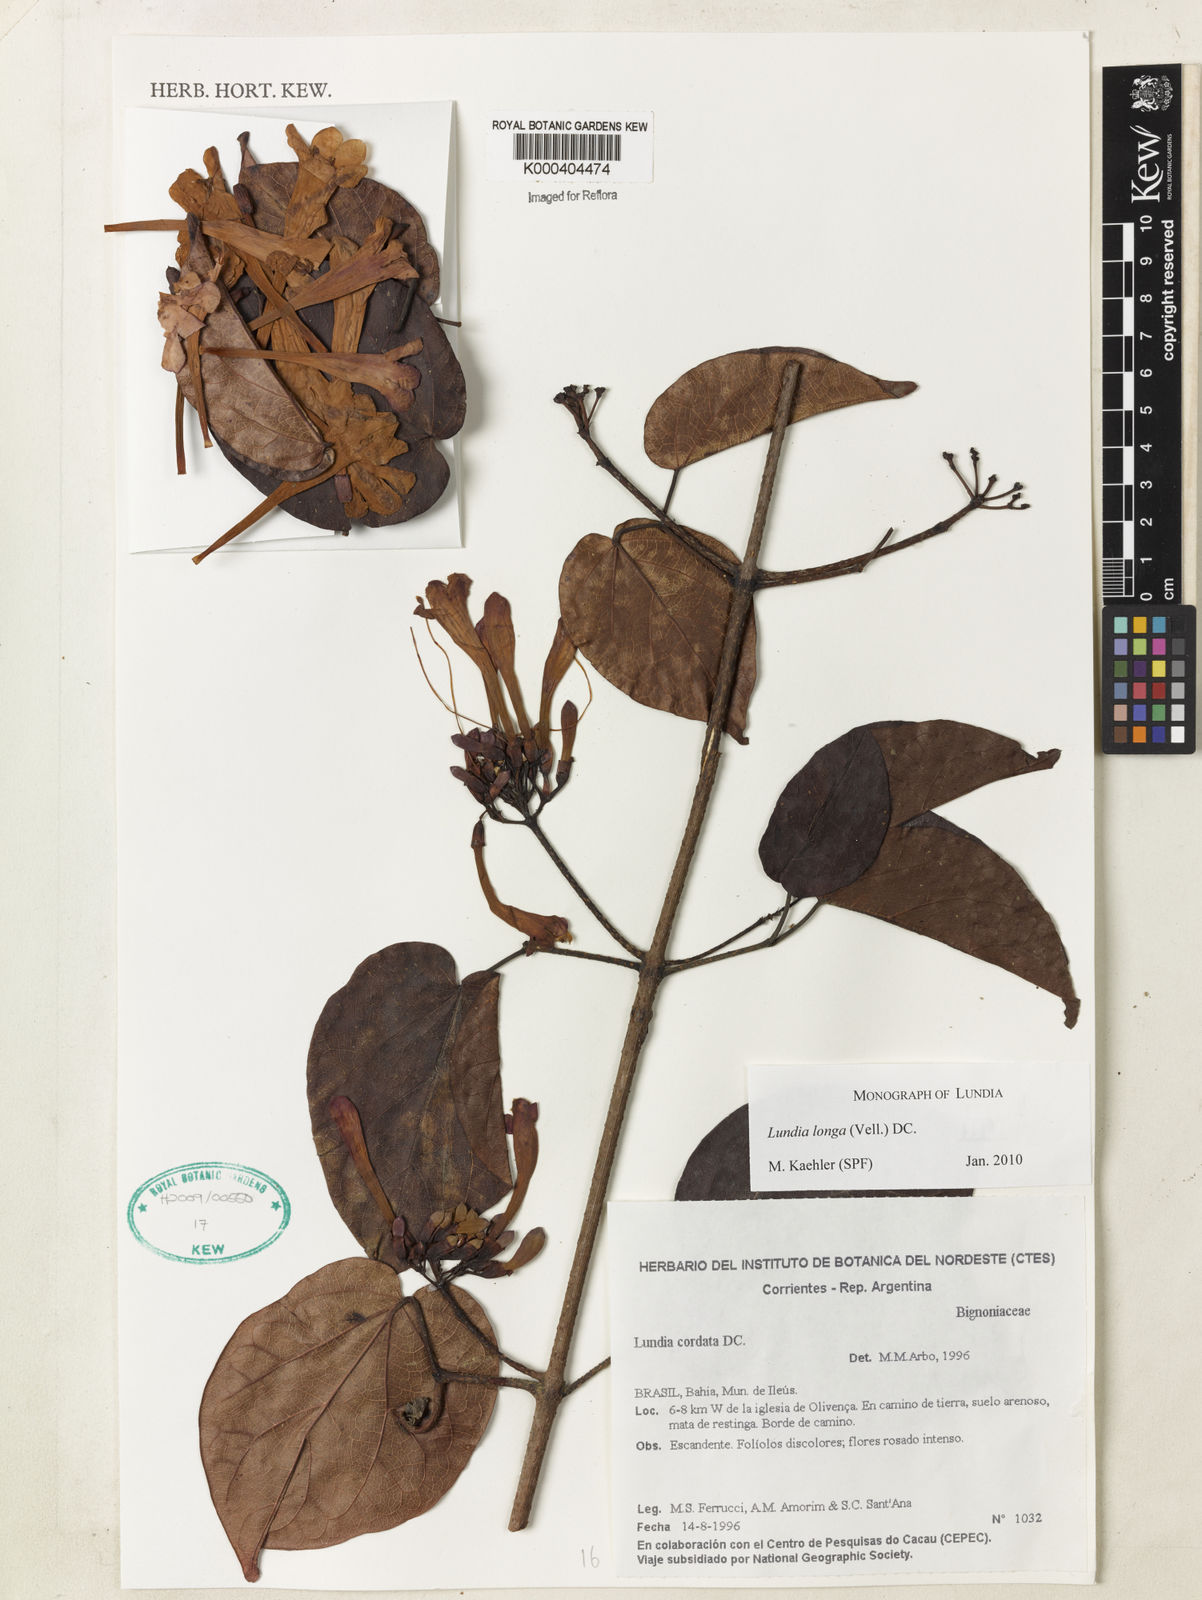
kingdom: Plantae
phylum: Tracheophyta
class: Magnoliopsida
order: Lamiales
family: Bignoniaceae
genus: Lundia
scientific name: Lundia longa
